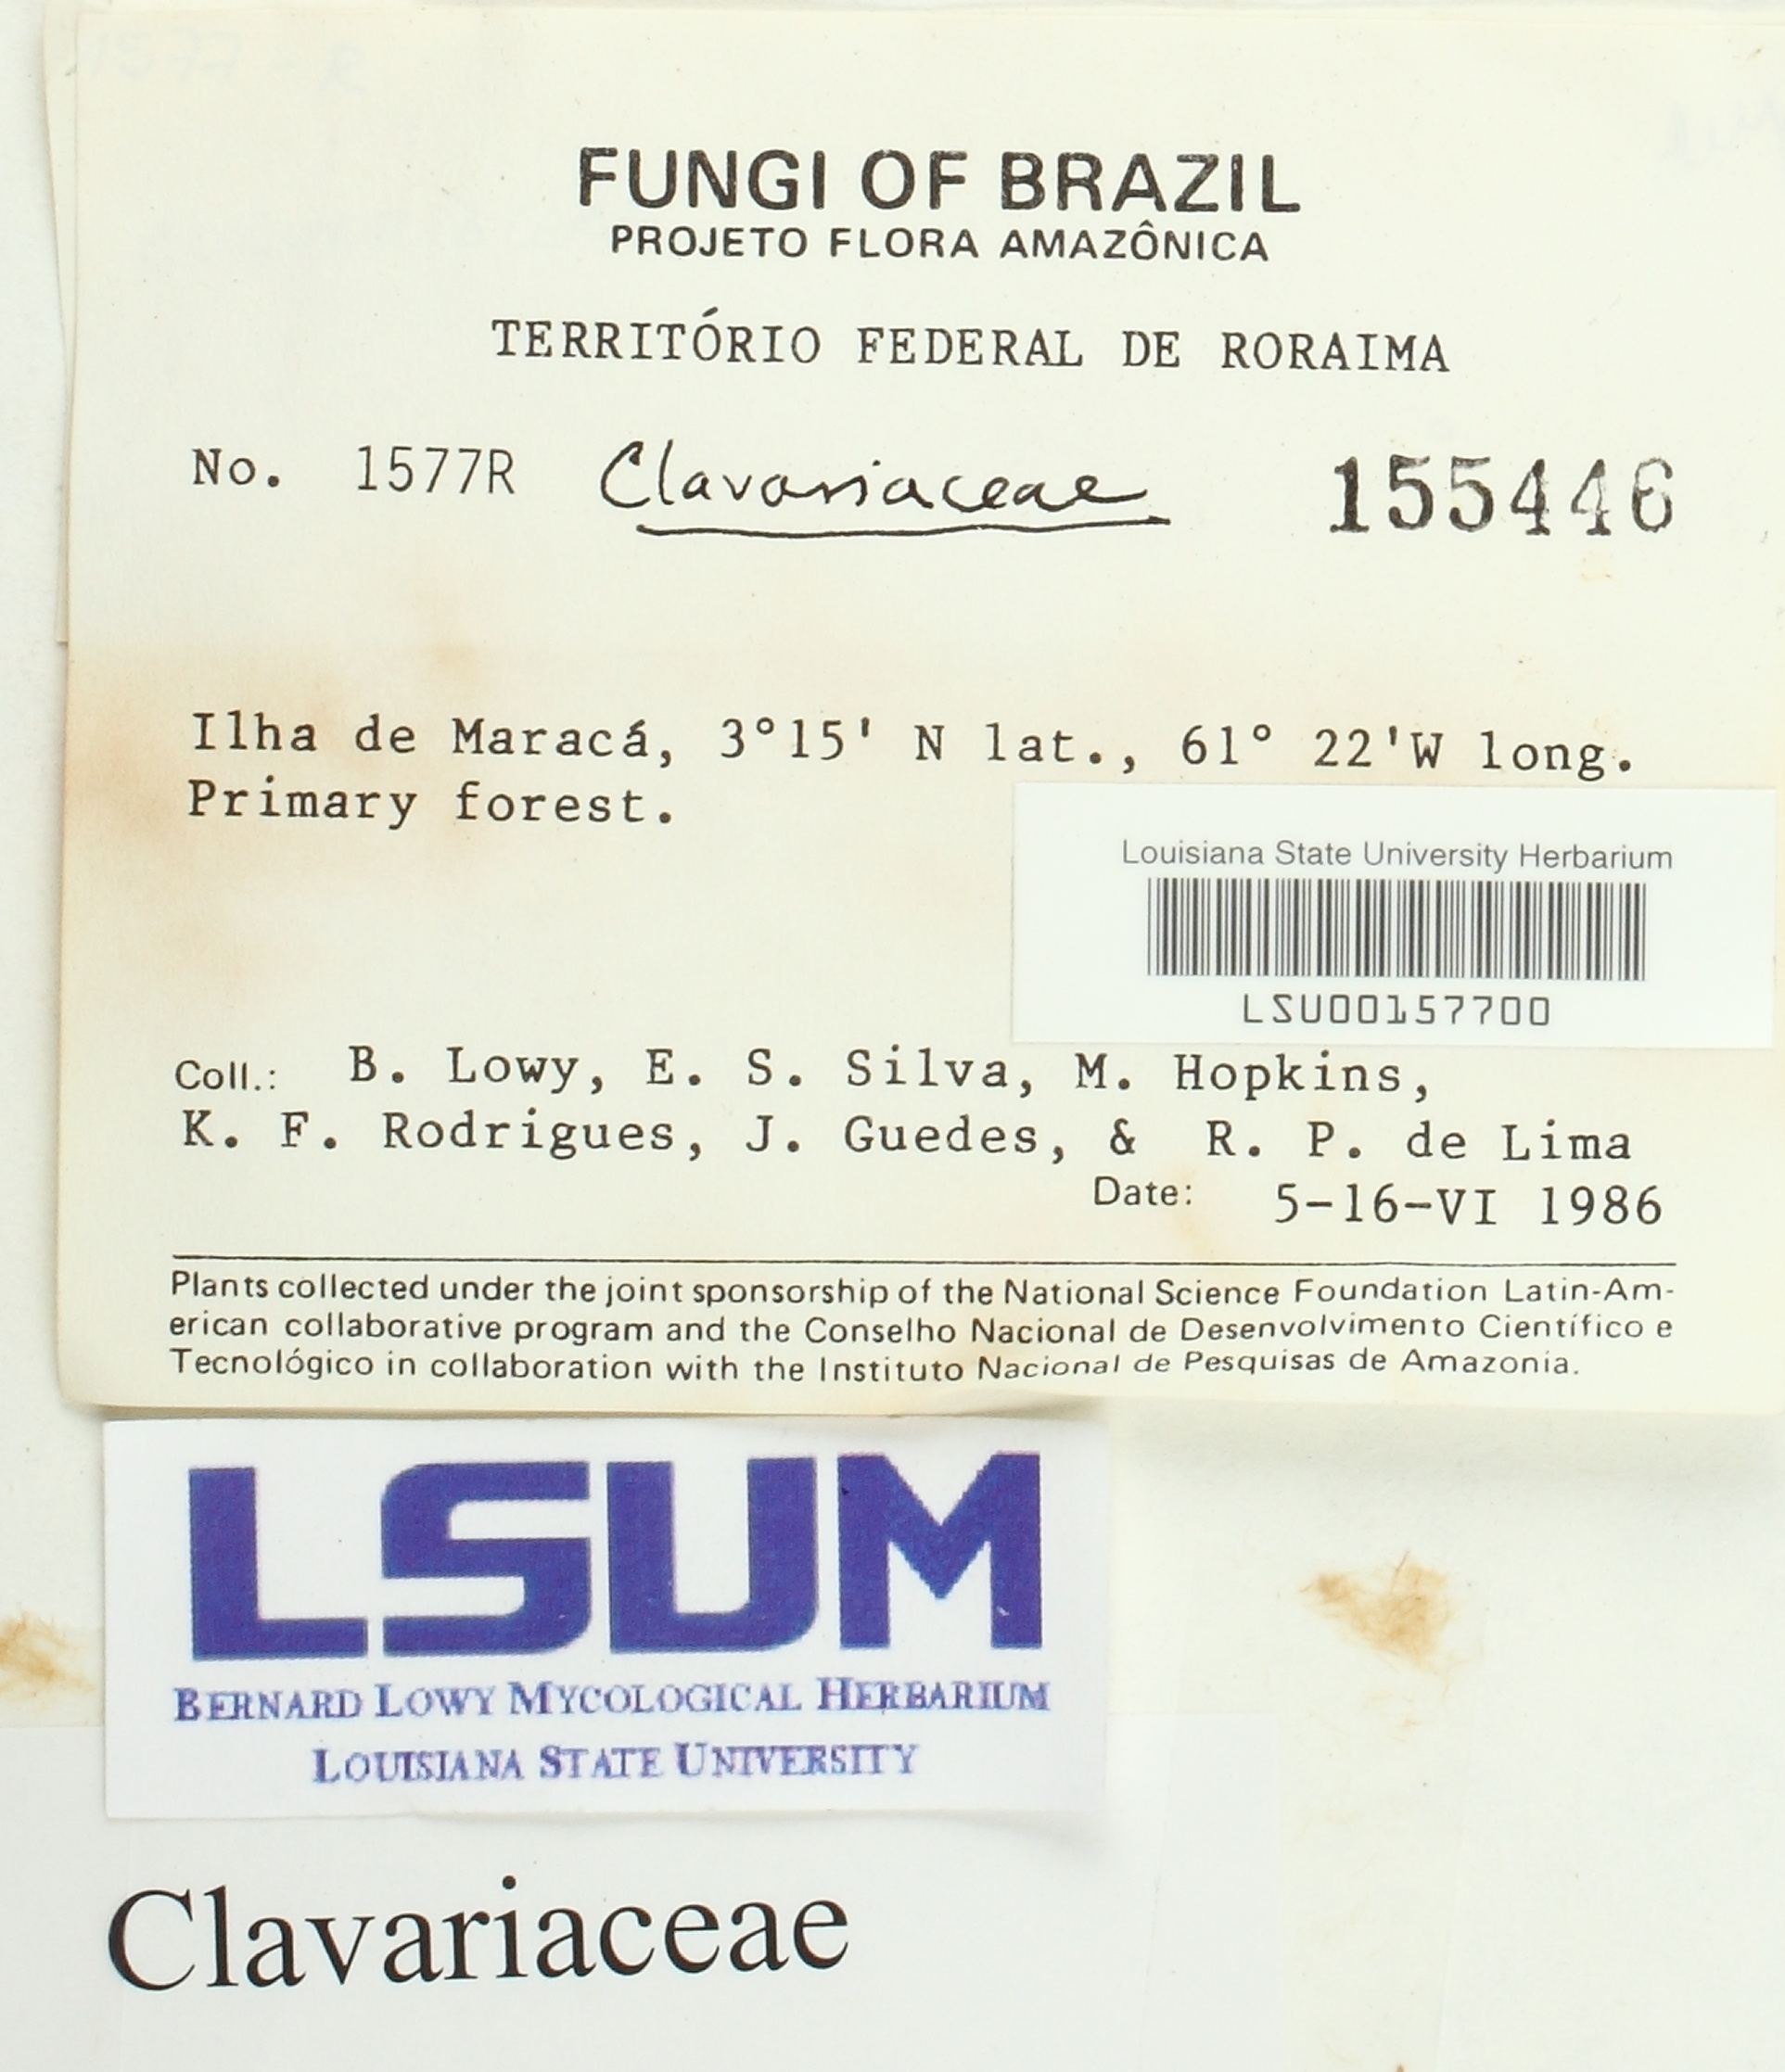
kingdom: Fungi
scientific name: Fungi
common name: Fungi
